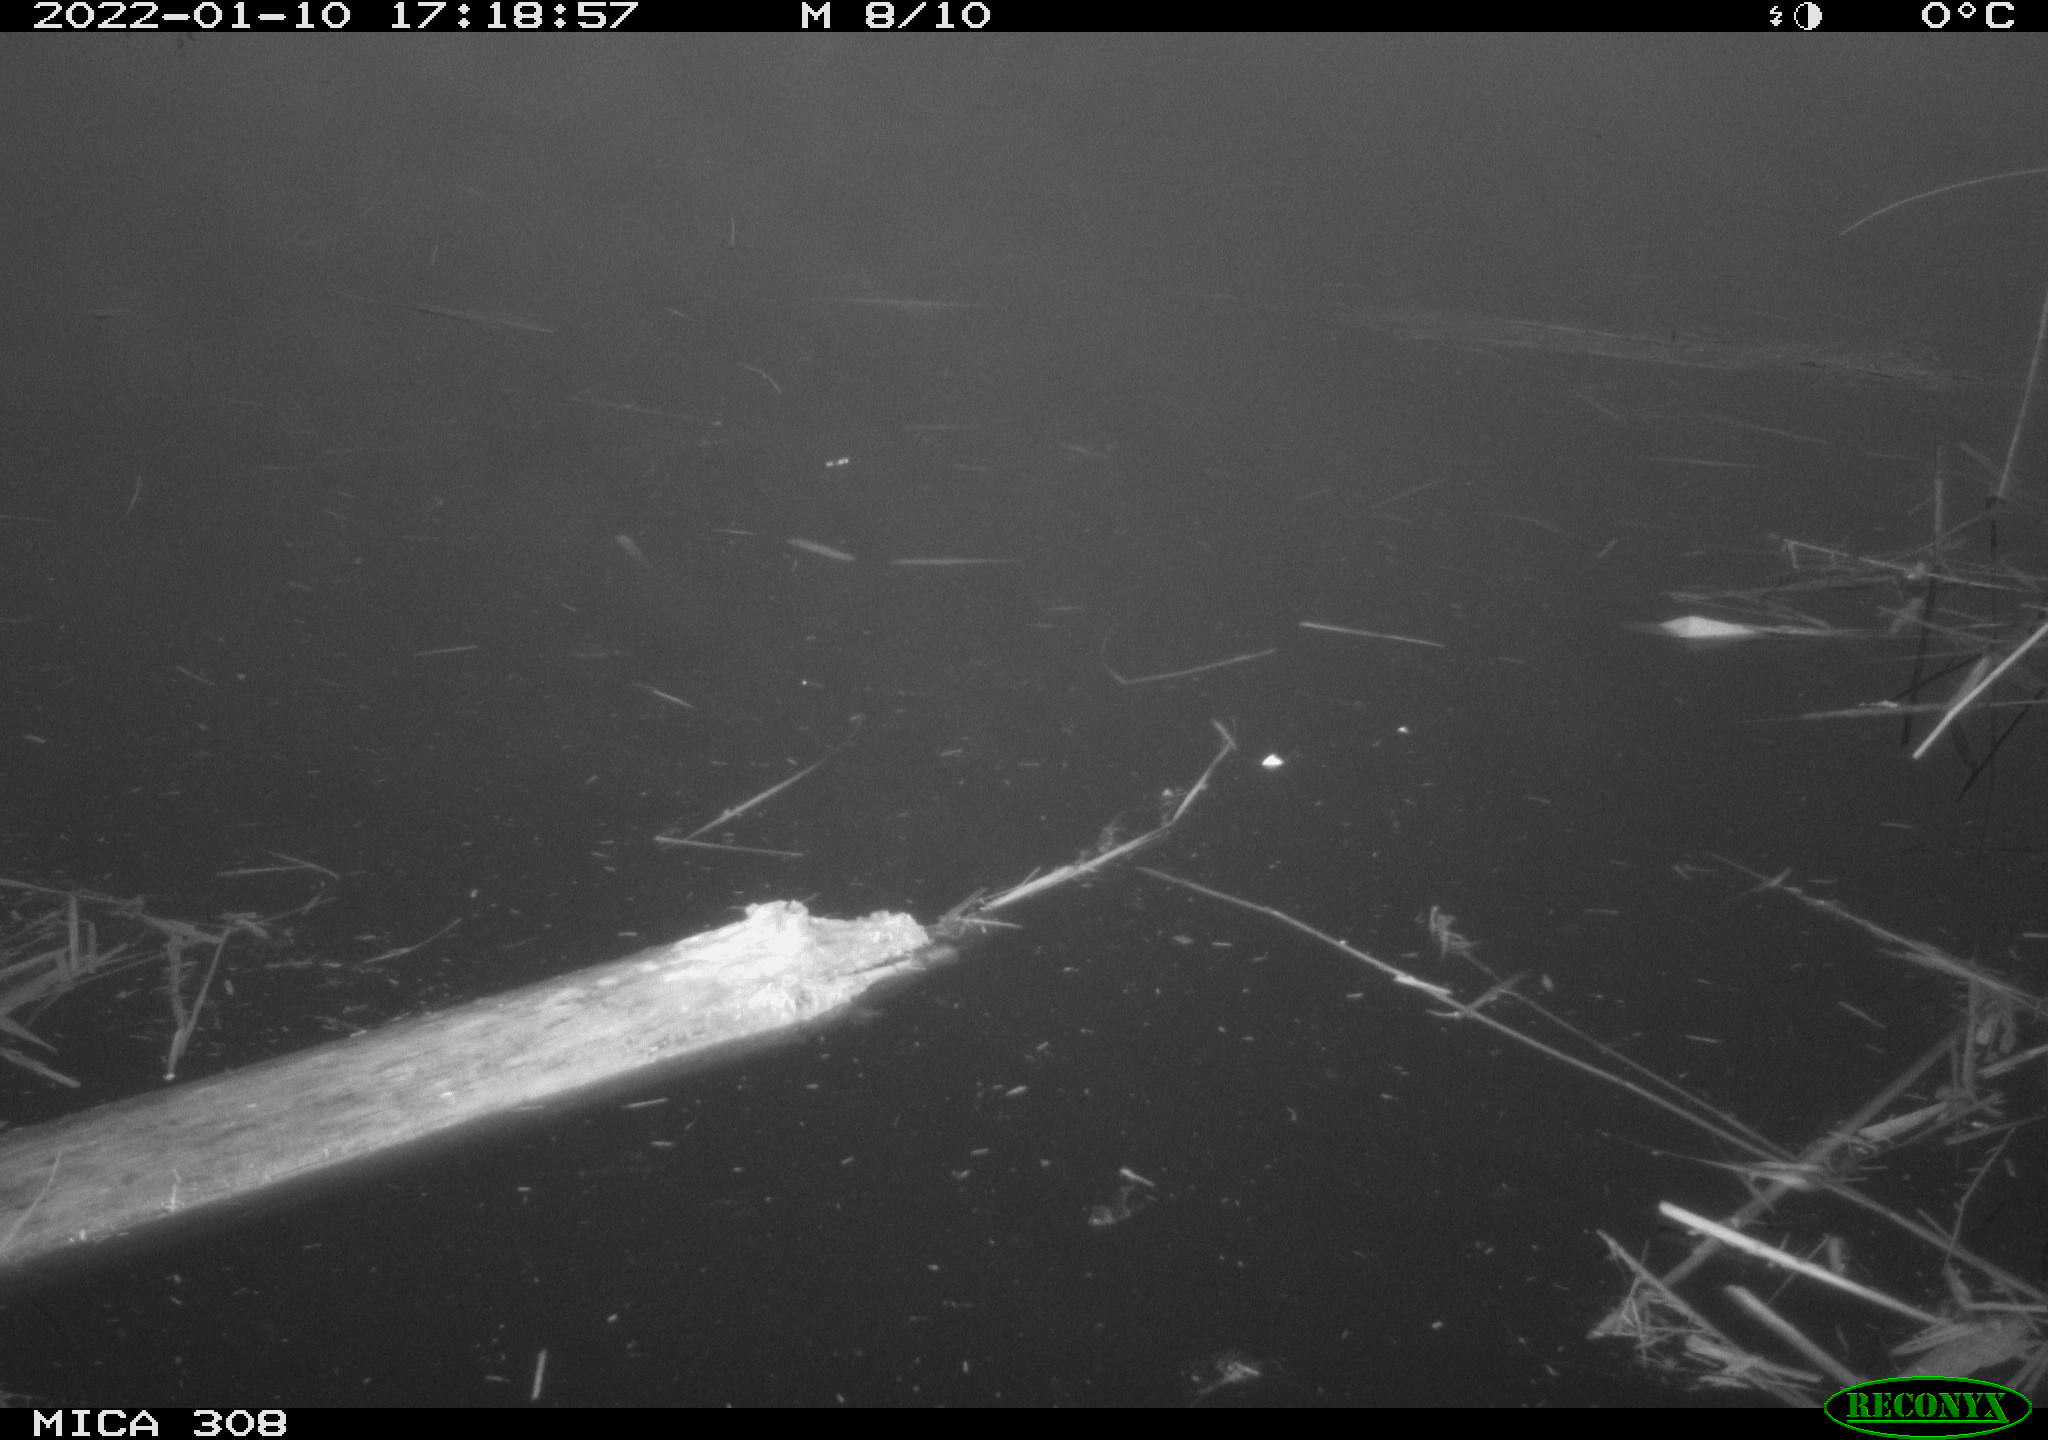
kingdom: Animalia
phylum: Chordata
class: Aves
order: Gruiformes
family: Rallidae
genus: Gallinula
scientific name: Gallinula chloropus
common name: Common moorhen
